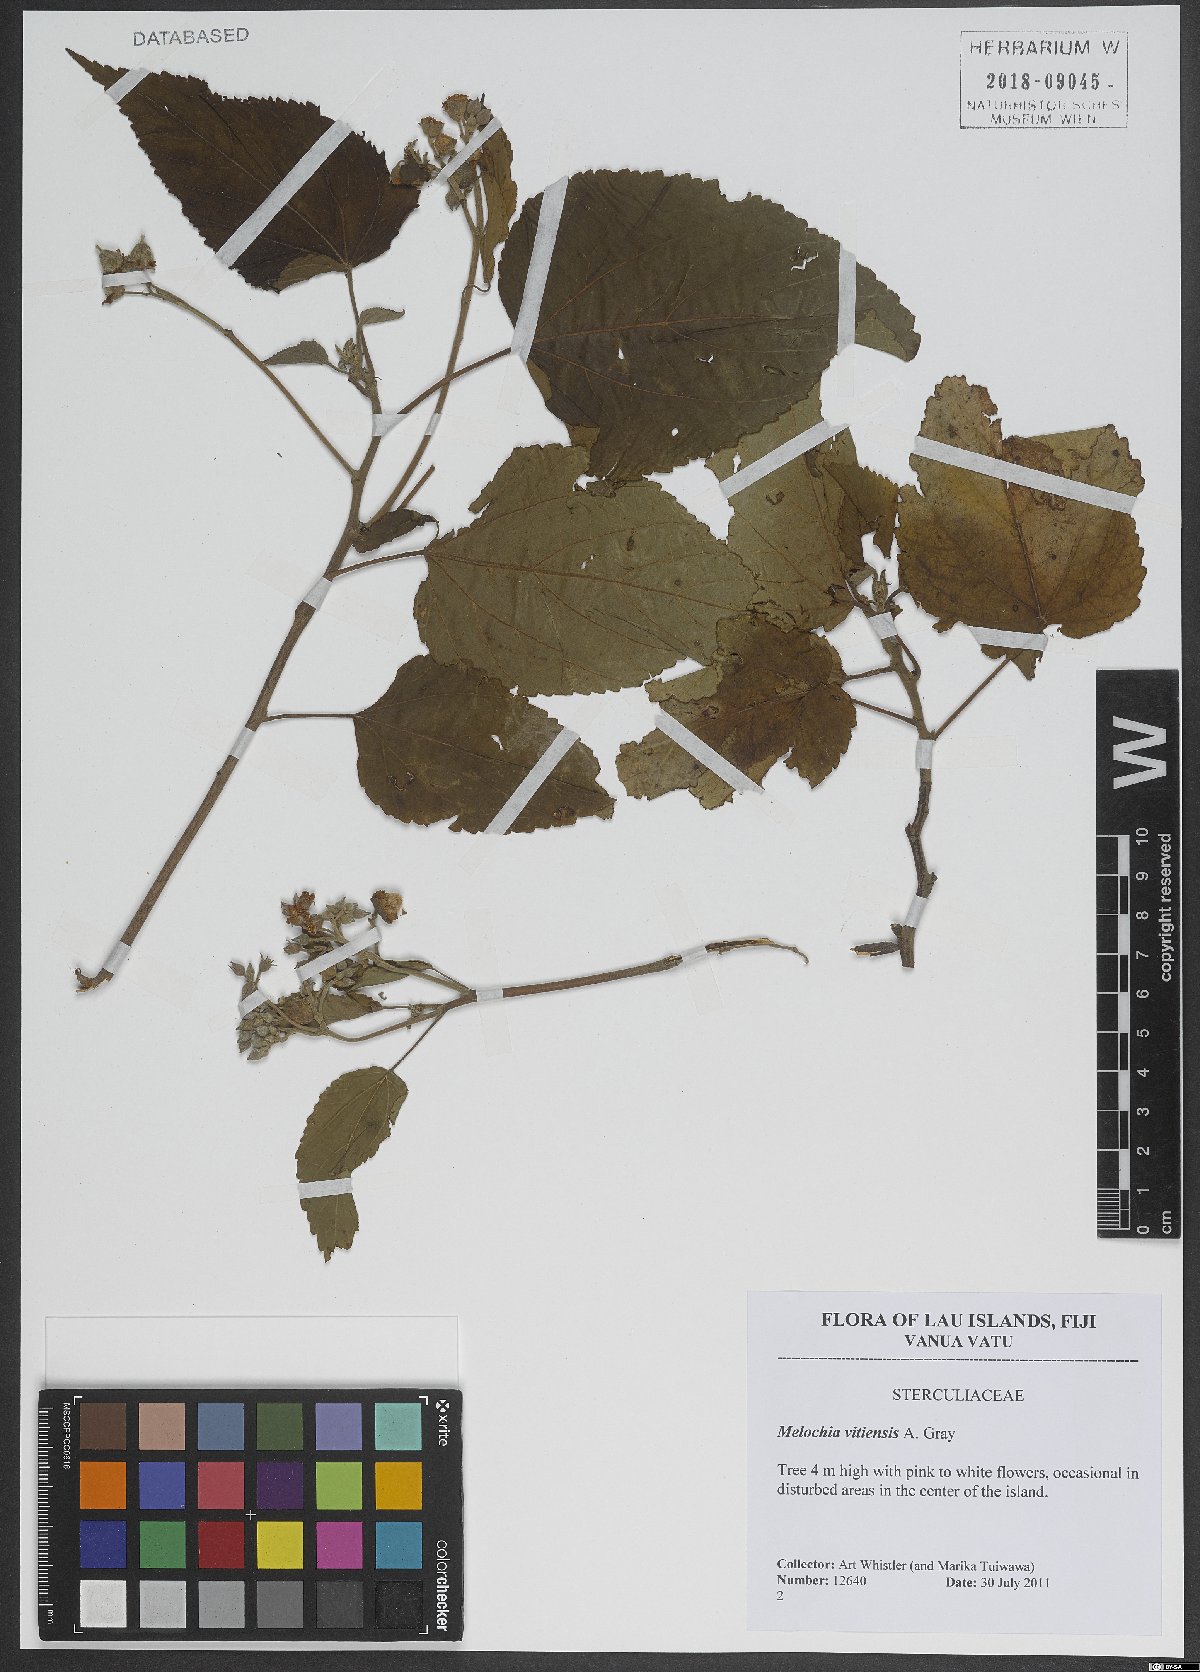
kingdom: Plantae
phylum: Tracheophyta
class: Magnoliopsida
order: Malvales
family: Malvaceae
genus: Melochia
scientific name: Melochia odorata
